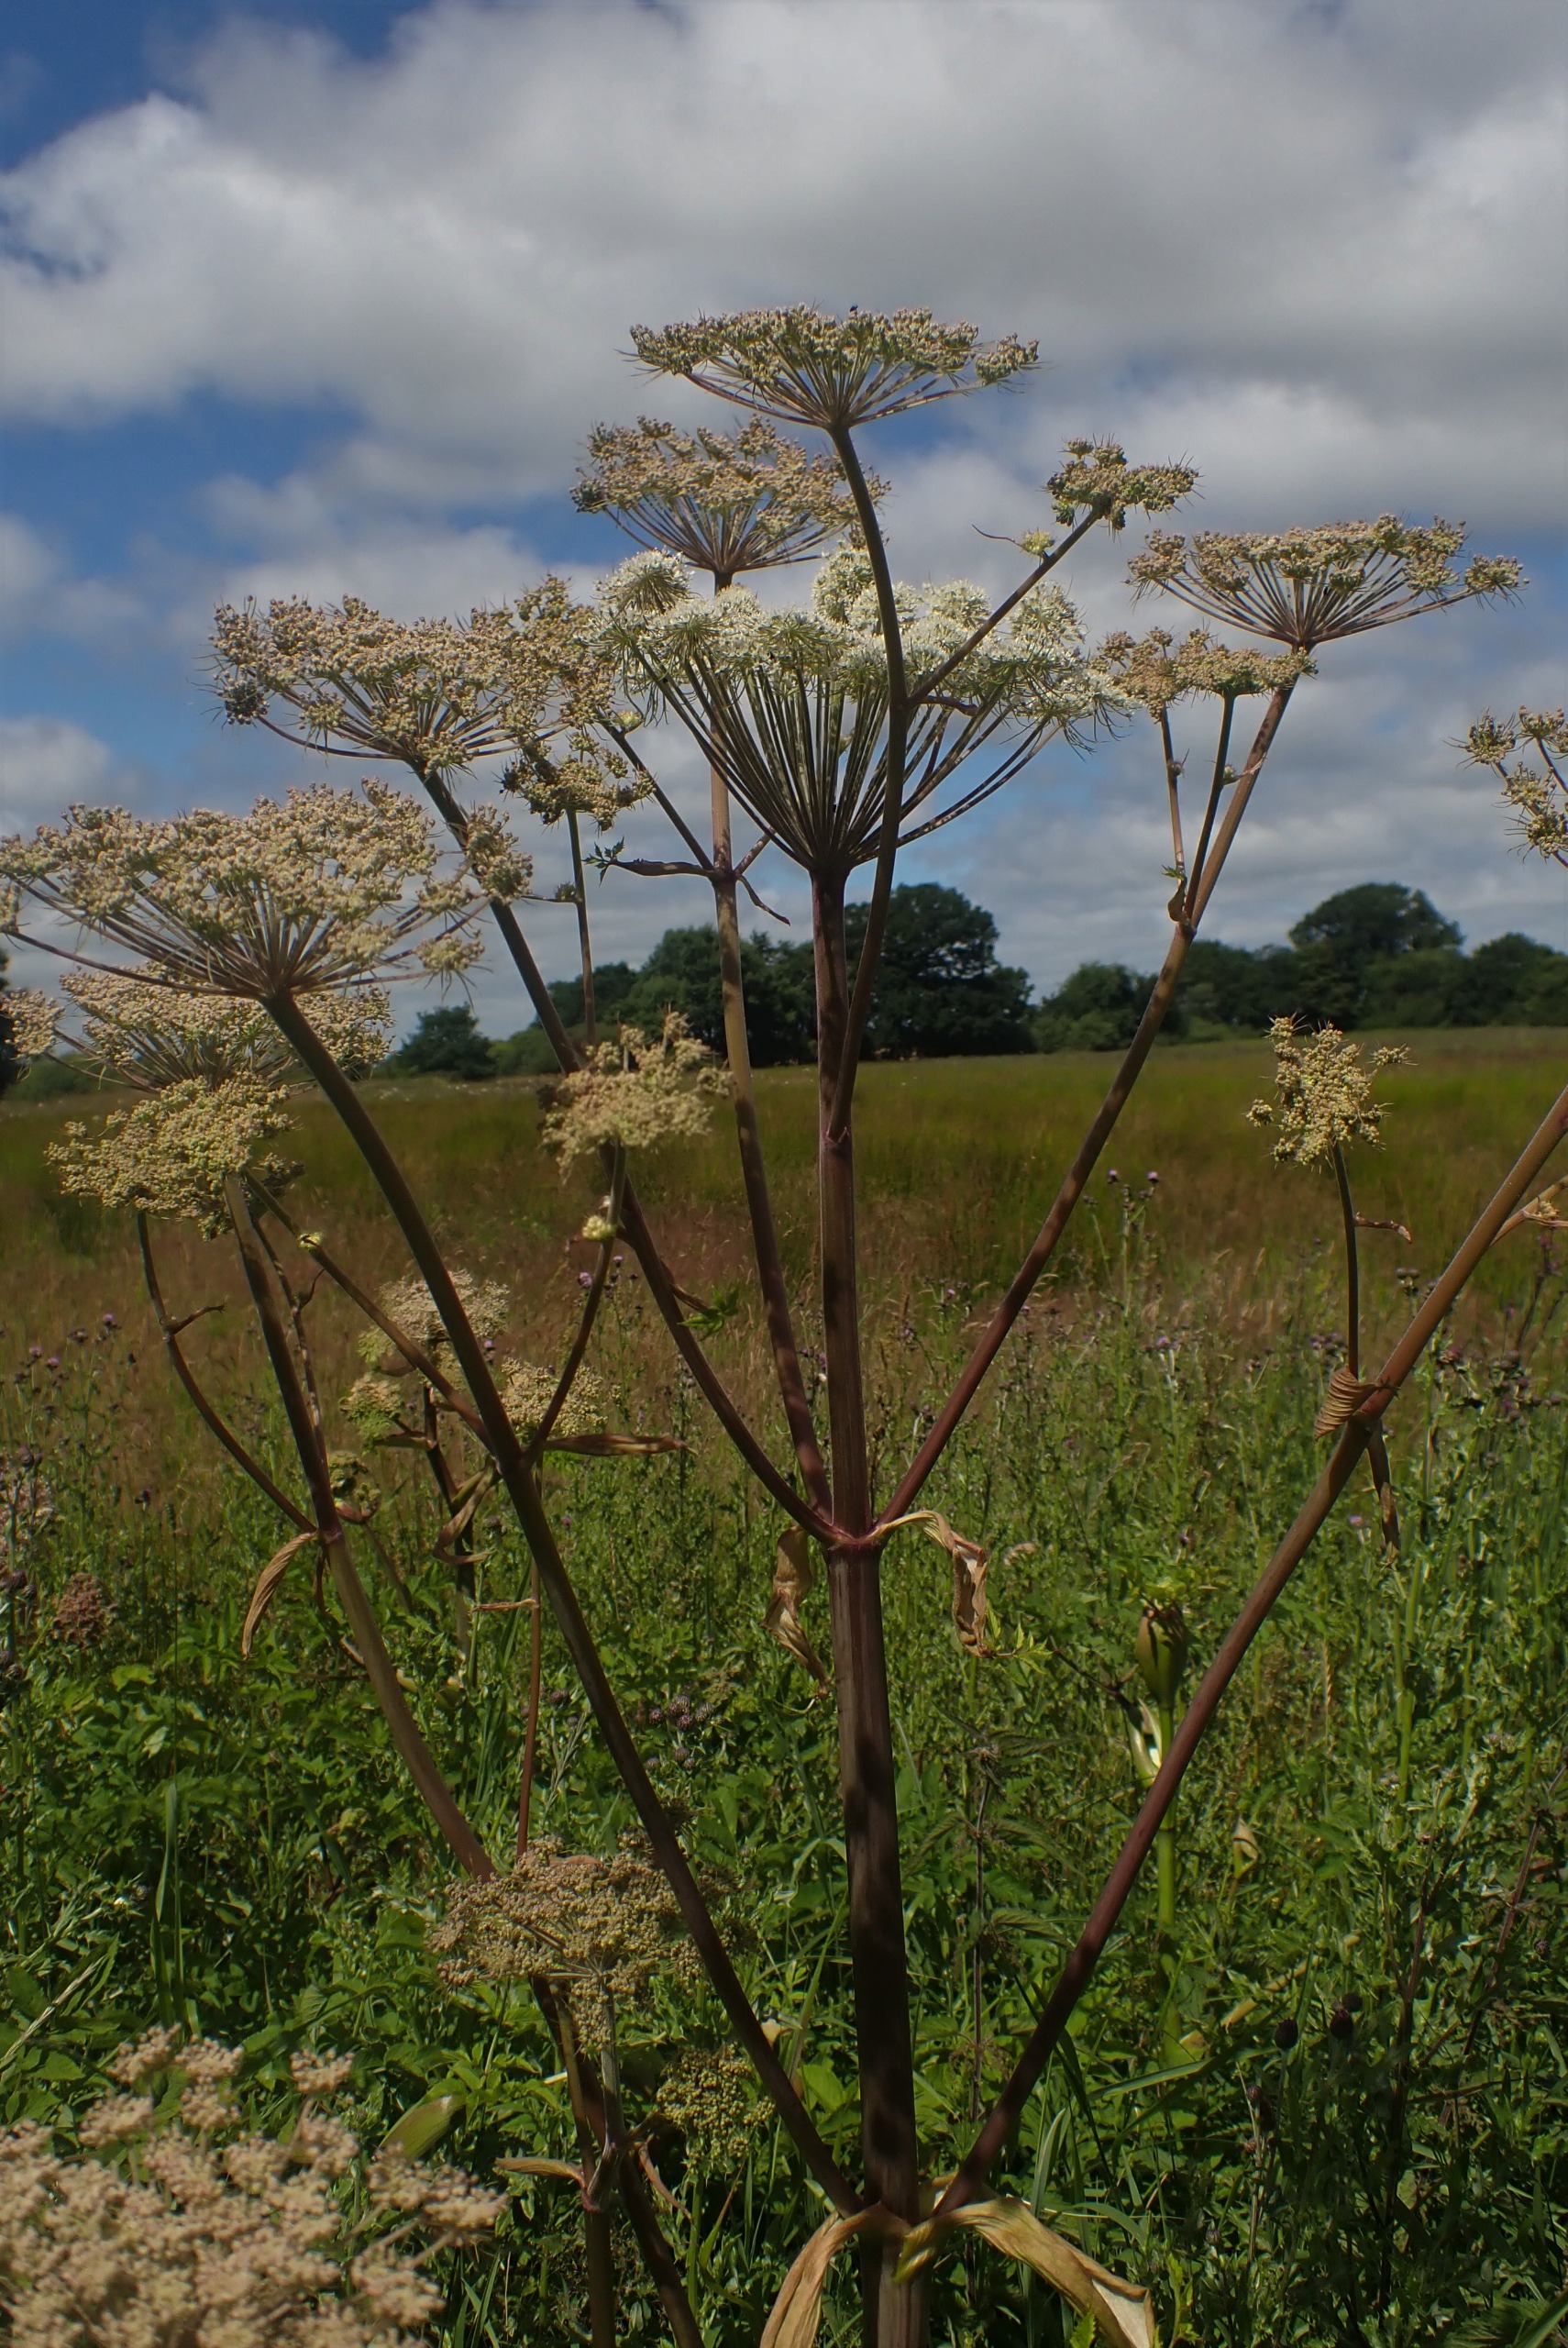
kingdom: Plantae
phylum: Tracheophyta
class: Magnoliopsida
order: Apiales
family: Apiaceae
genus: Angelica
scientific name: Angelica sylvestris
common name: Angelik
